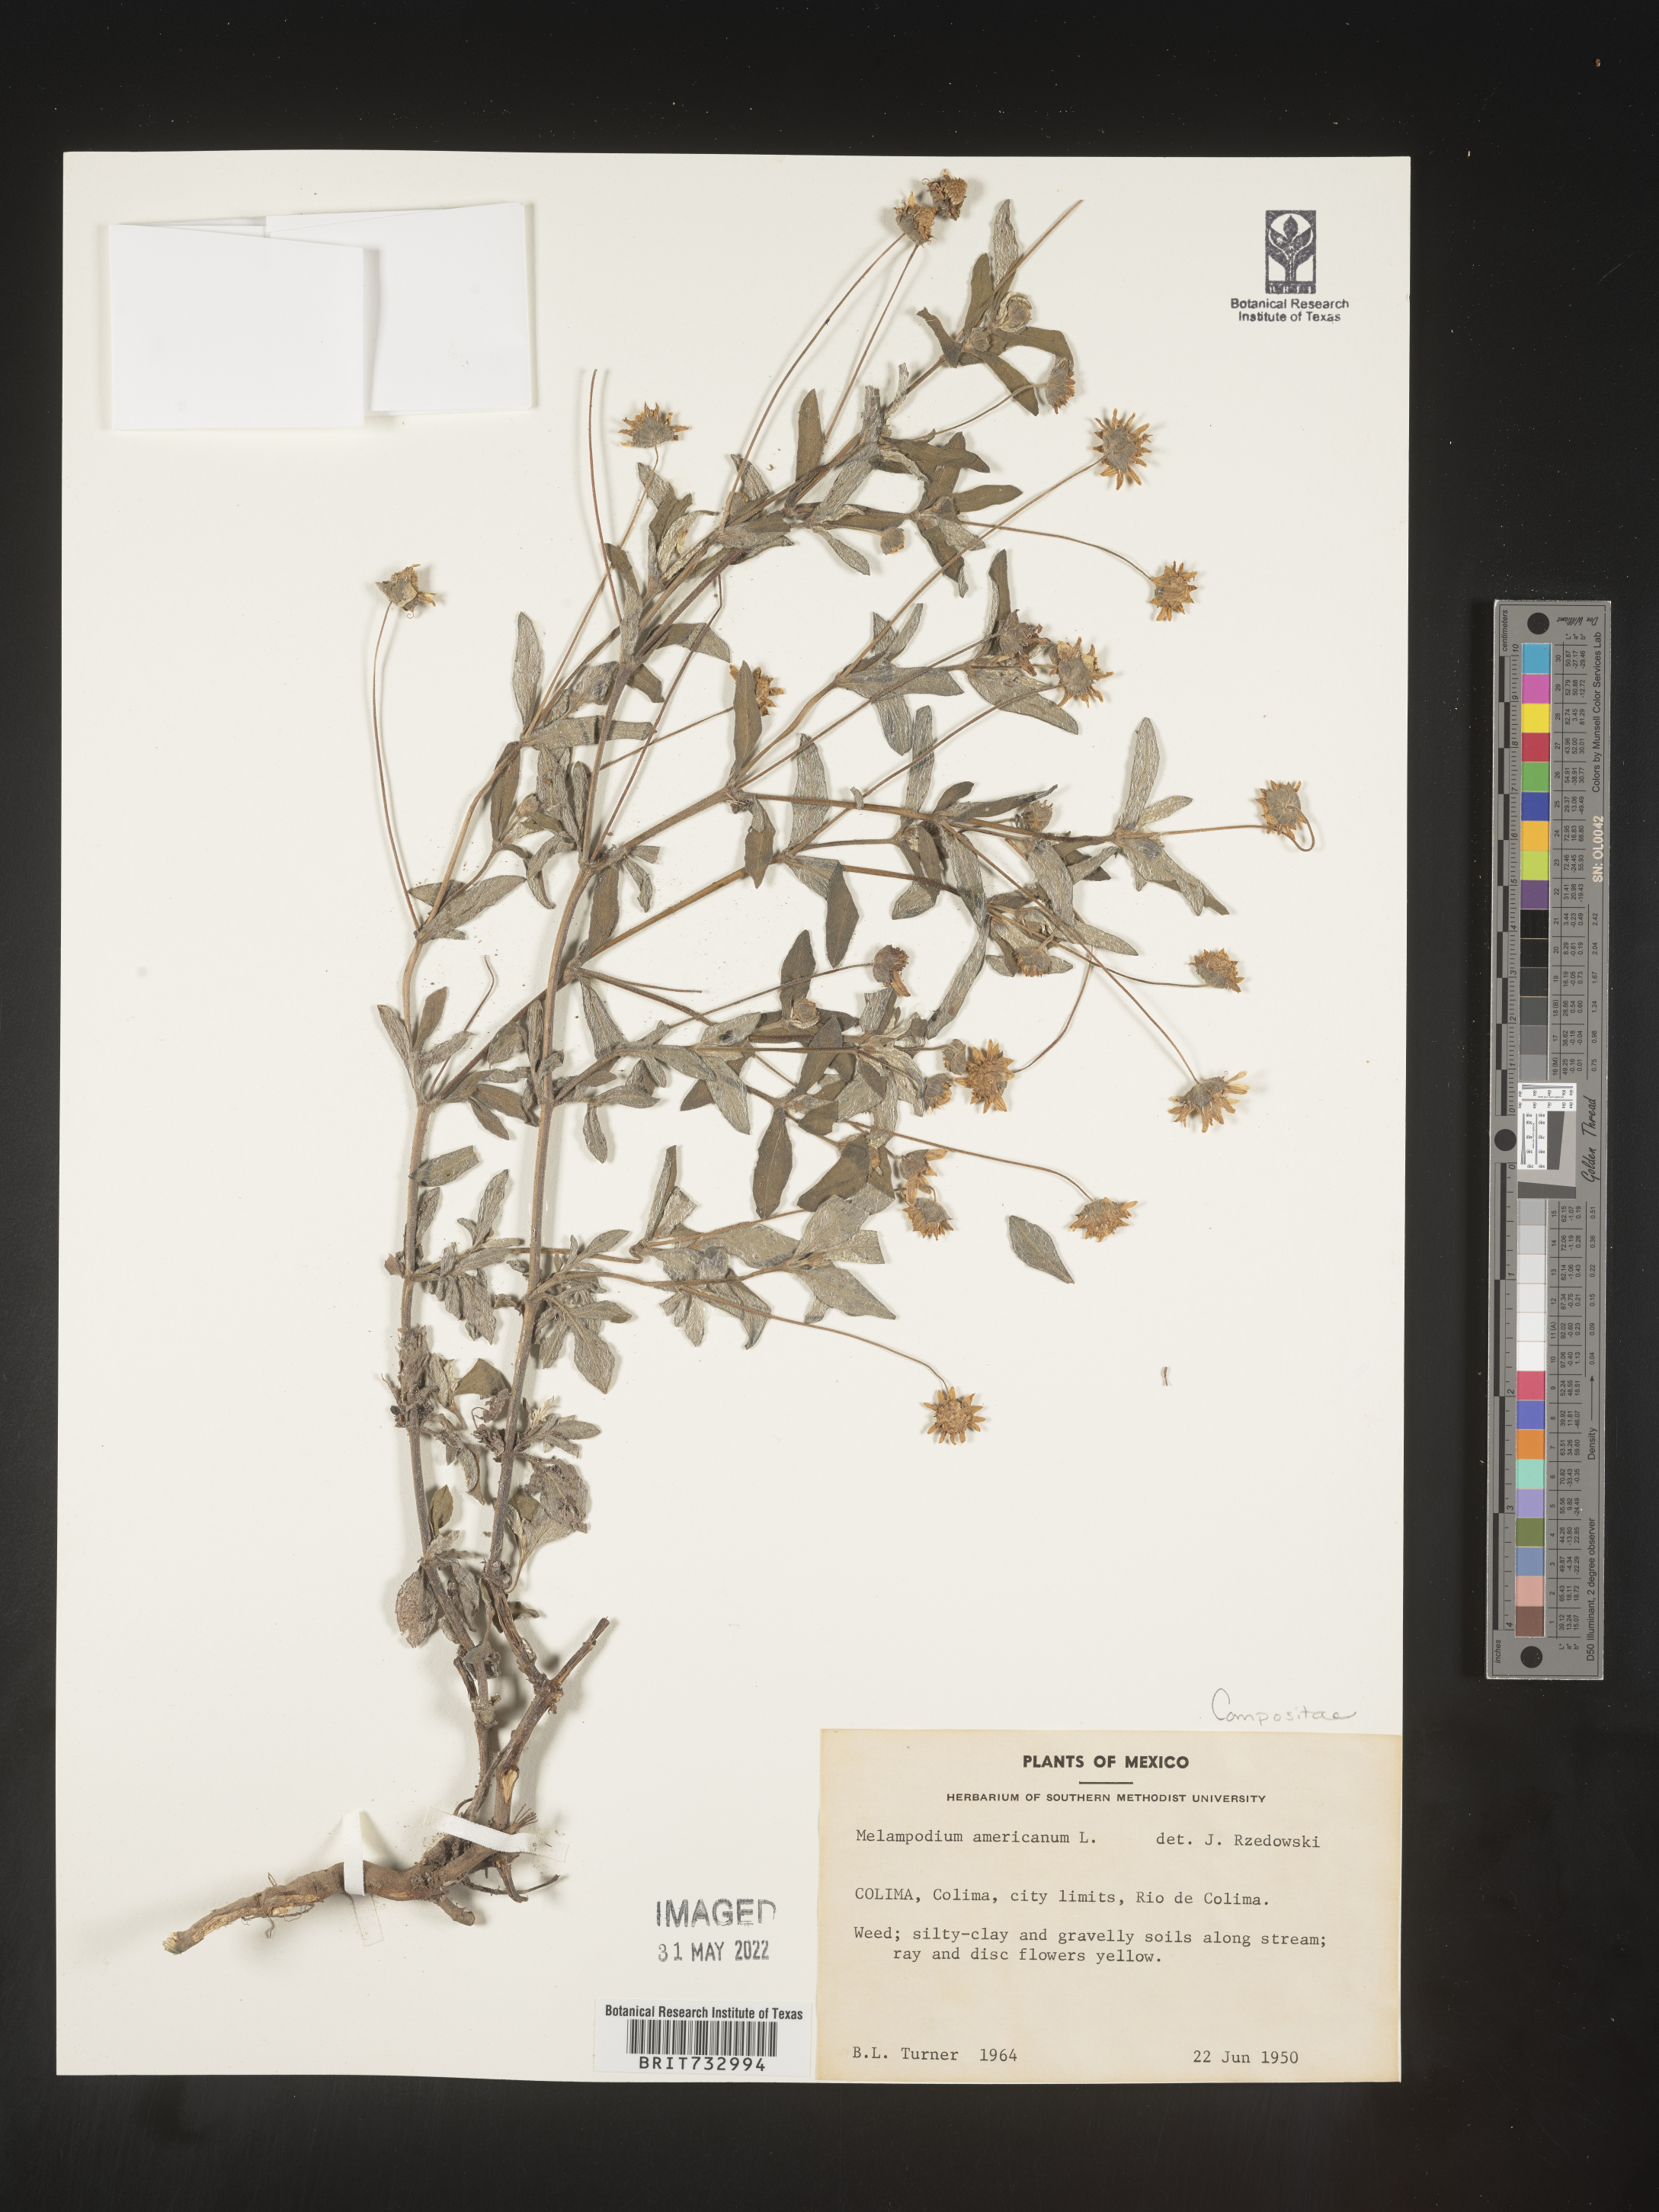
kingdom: Plantae
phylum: Tracheophyta
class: Magnoliopsida
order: Asterales
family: Asteraceae
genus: Melampodium
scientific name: Melampodium
